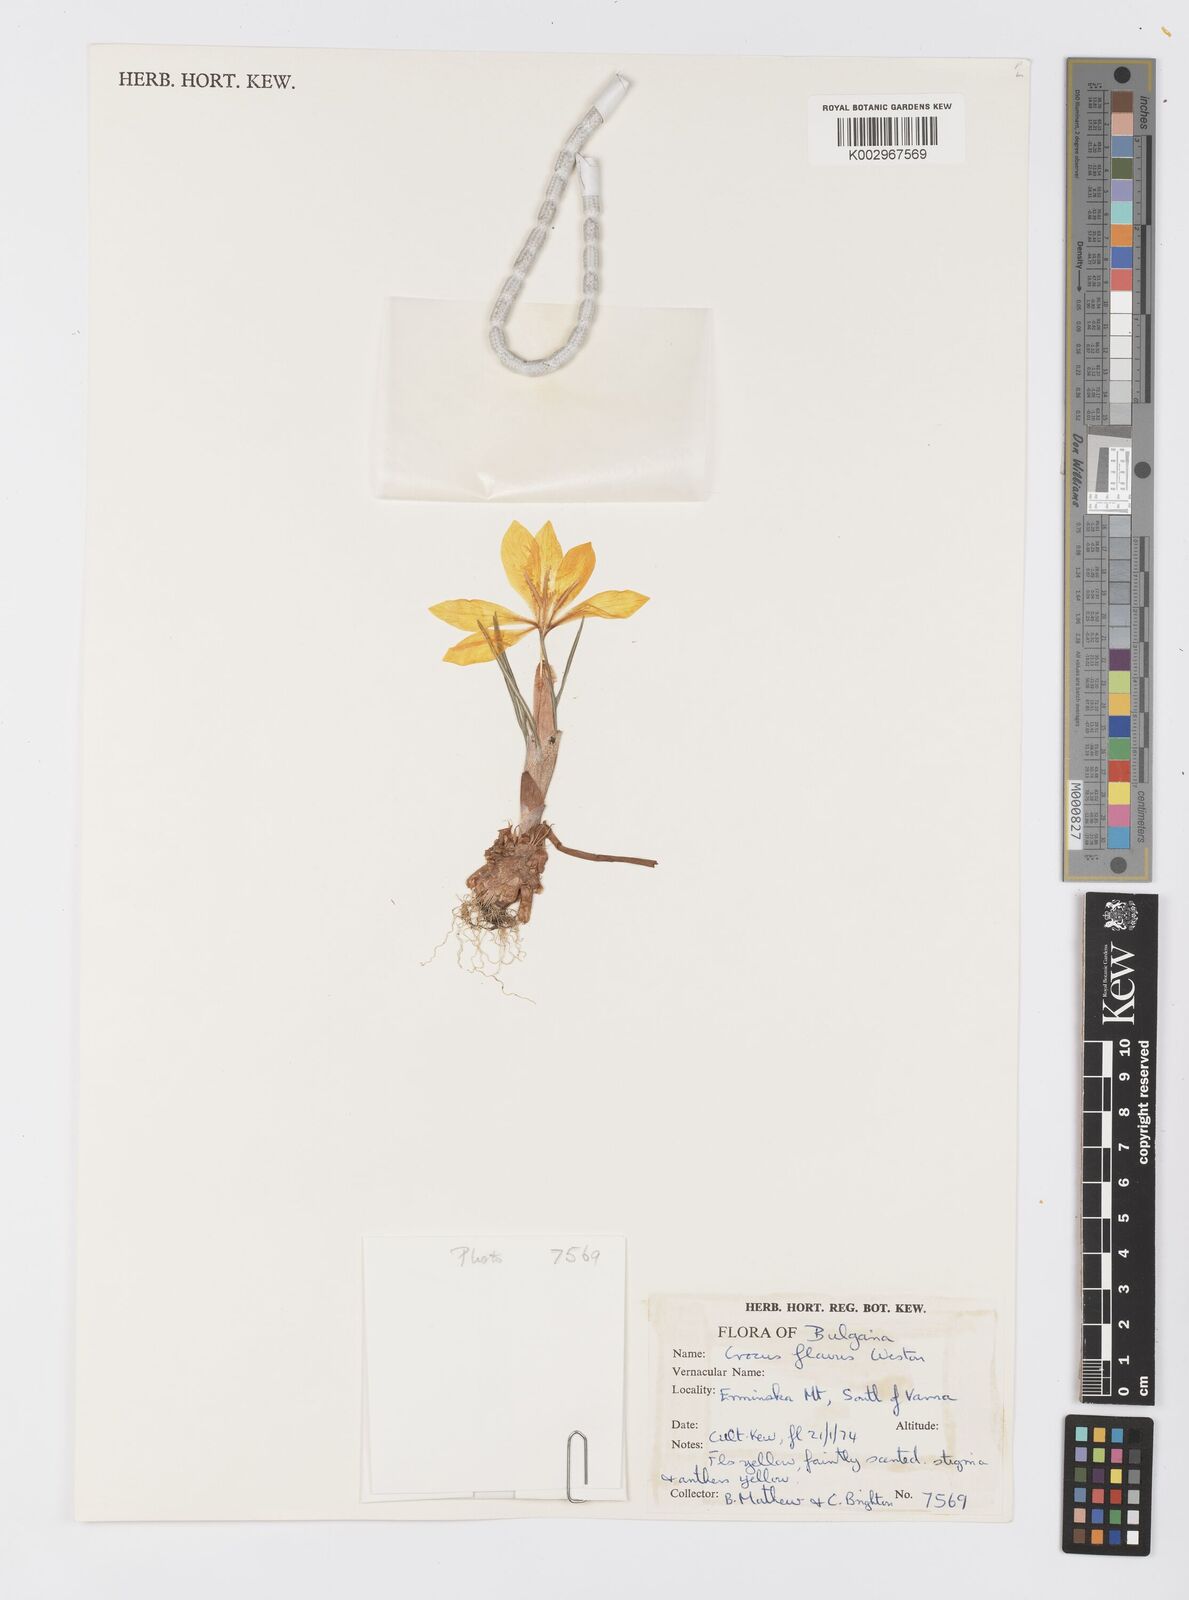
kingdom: Plantae
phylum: Tracheophyta
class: Liliopsida
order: Asparagales
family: Iridaceae
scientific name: Iridaceae
